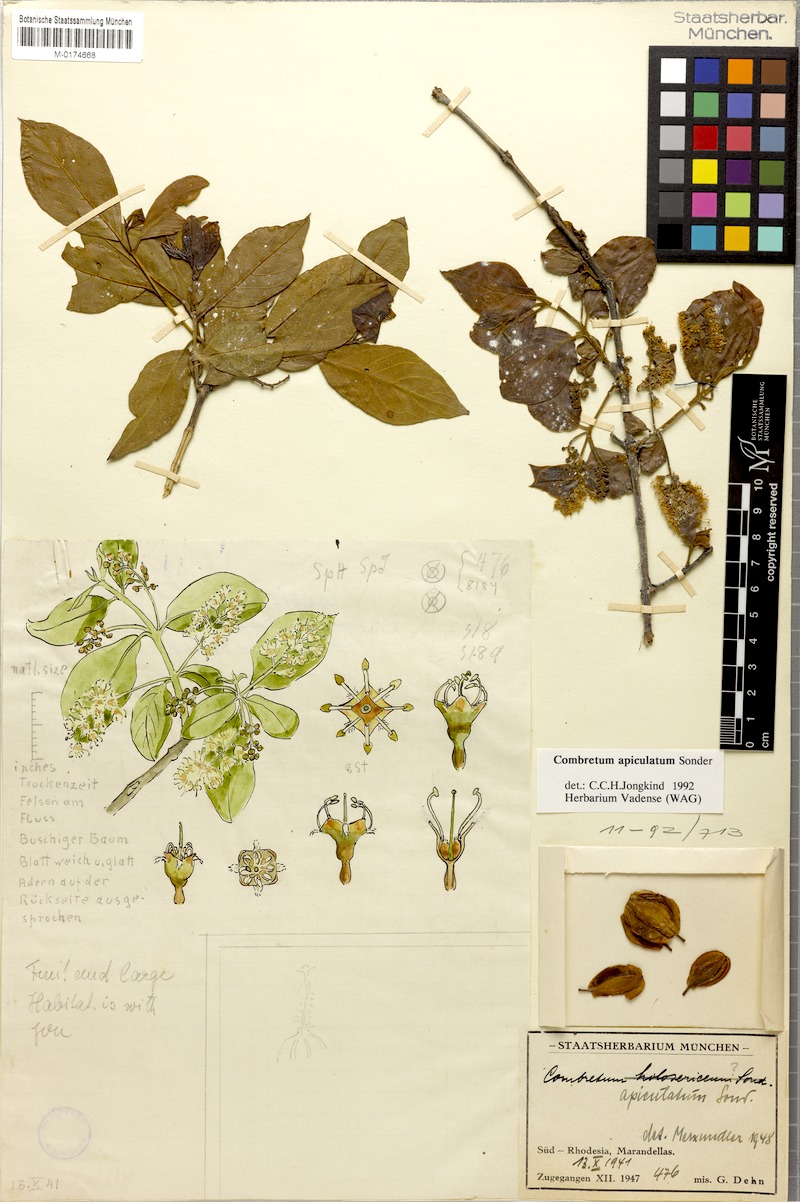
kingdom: Plantae
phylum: Tracheophyta
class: Magnoliopsida
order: Myrtales
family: Combretaceae
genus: Combretum
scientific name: Combretum apiculatum
